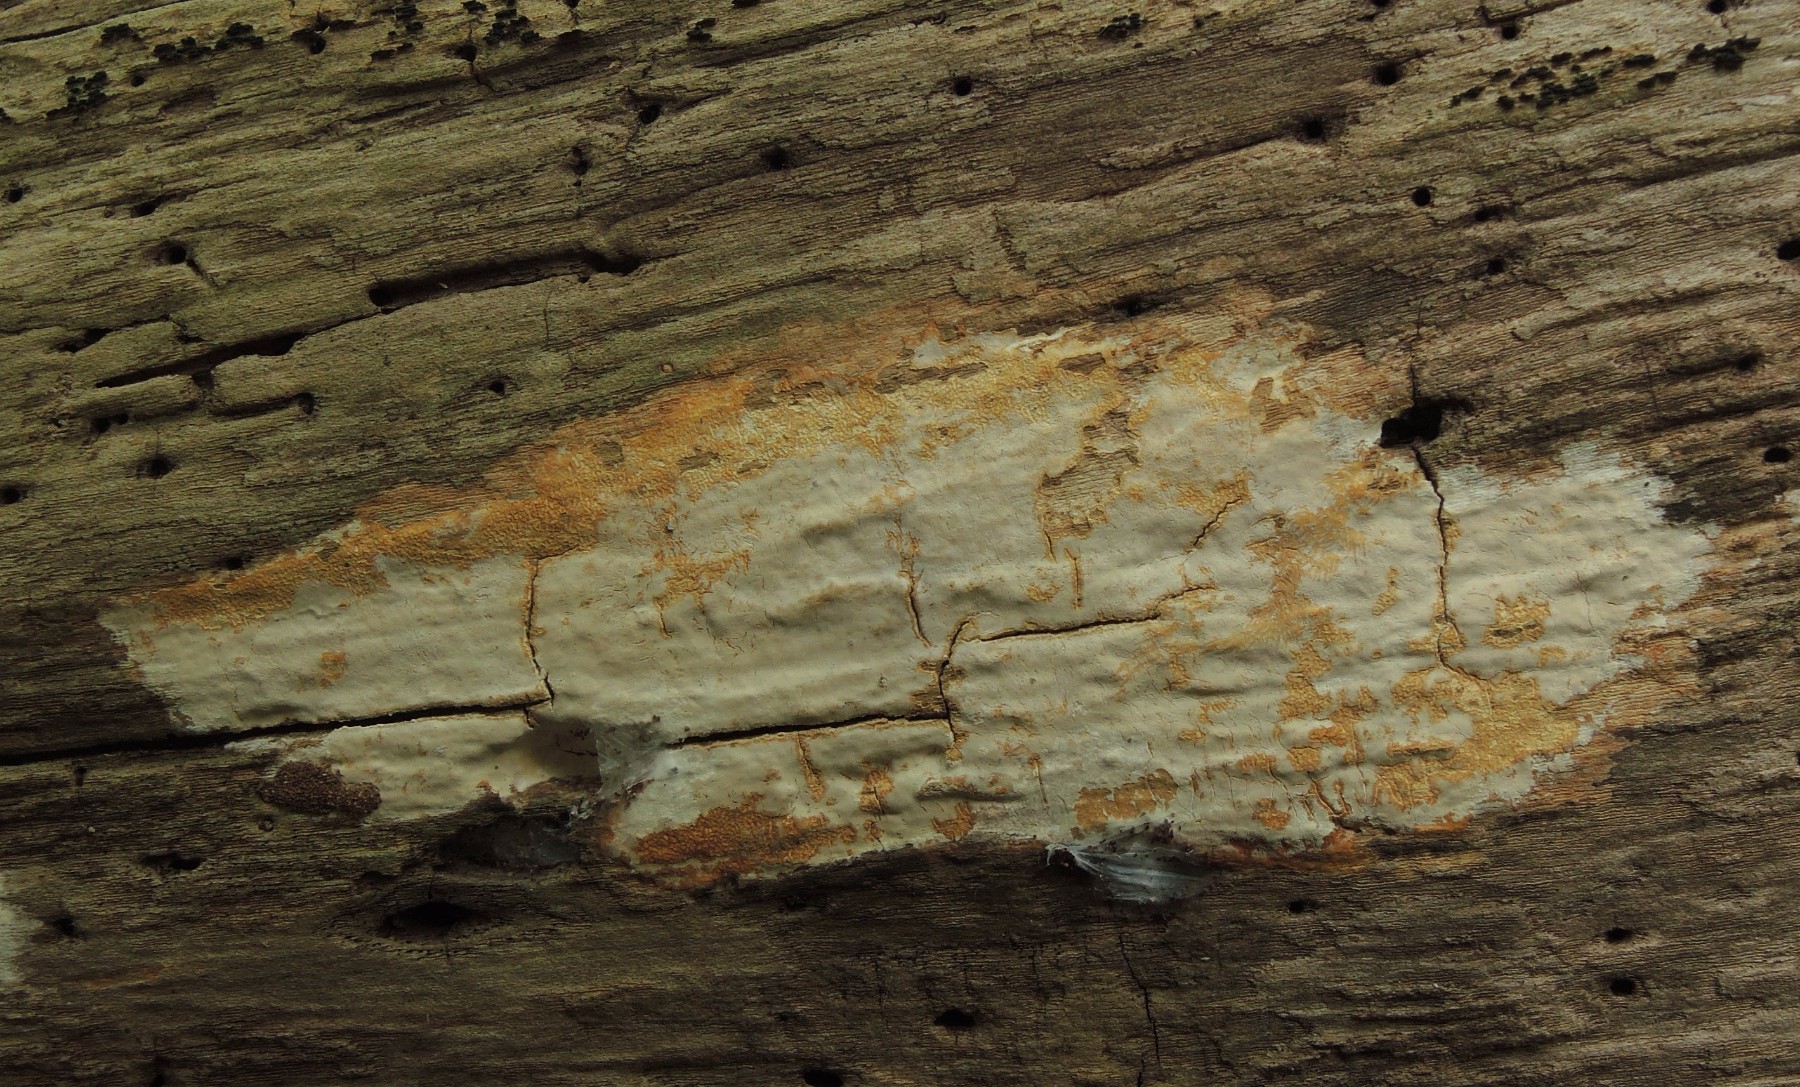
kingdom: Fungi
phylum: Basidiomycota
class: Agaricomycetes
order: Russulales
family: Peniophoraceae
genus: Scytinostroma
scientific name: Scytinostroma hemidichophyticum
